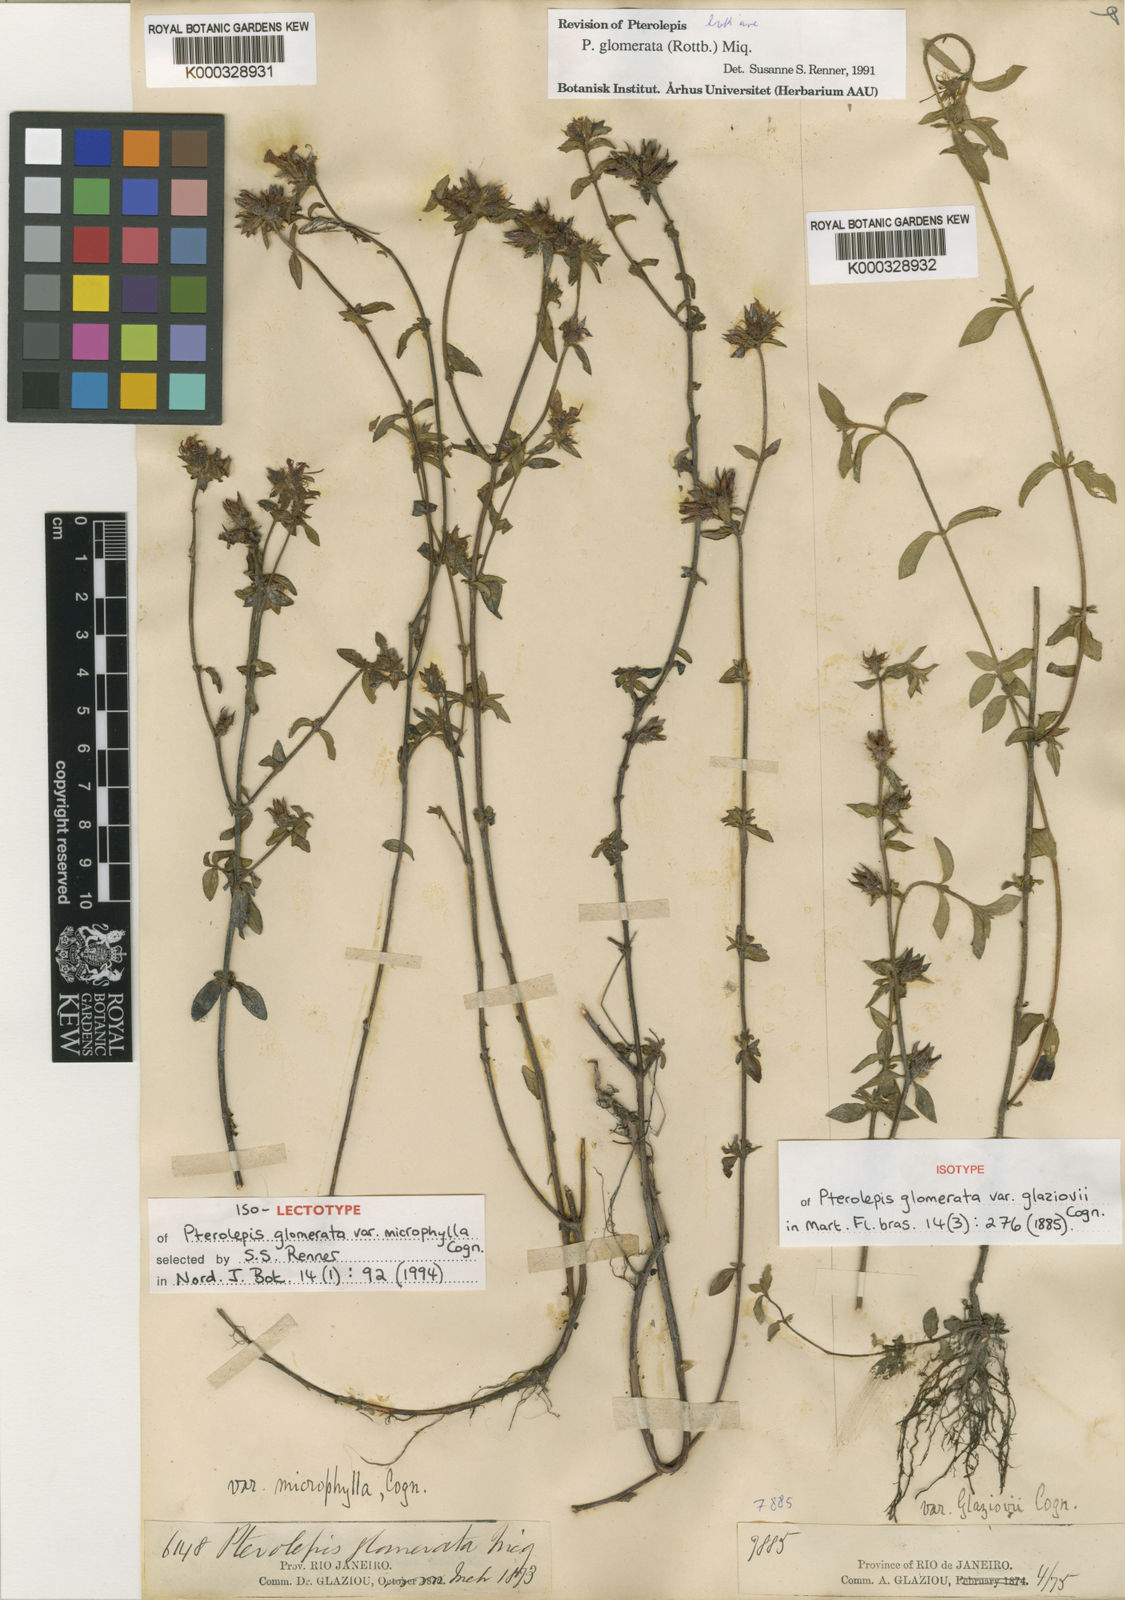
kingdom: Plantae
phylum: Tracheophyta
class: Magnoliopsida
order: Myrtales
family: Melastomataceae
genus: Pterolepis
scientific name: Pterolepis glomerata
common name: False meadowbeauty
